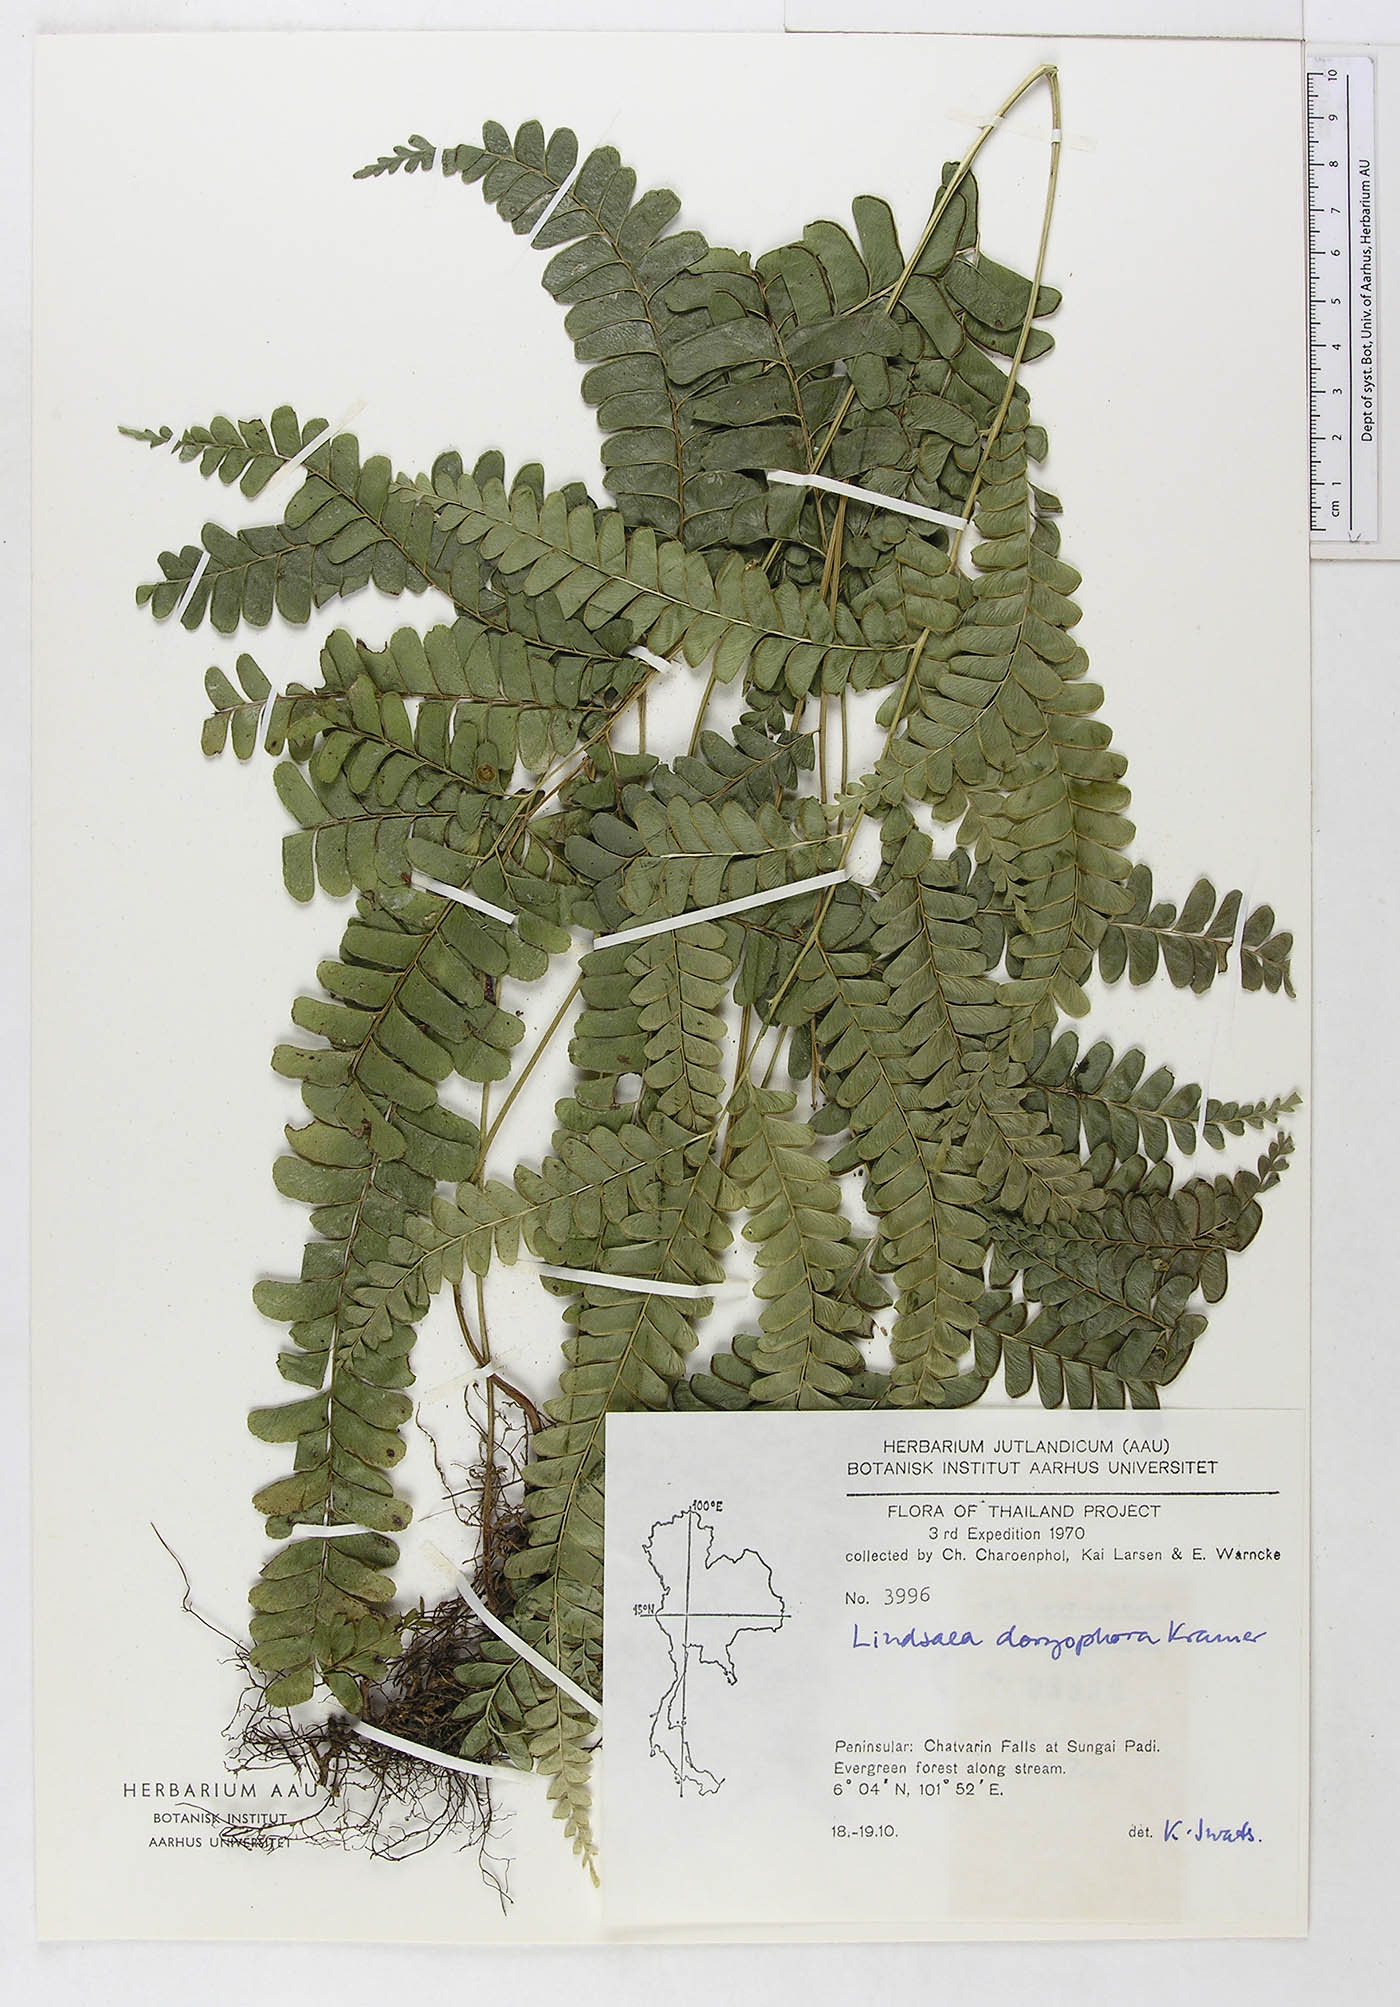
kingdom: Plantae
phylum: Tracheophyta
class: Polypodiopsida
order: Polypodiales
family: Lindsaeaceae
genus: Lindsaea
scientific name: Lindsaea doryphora
